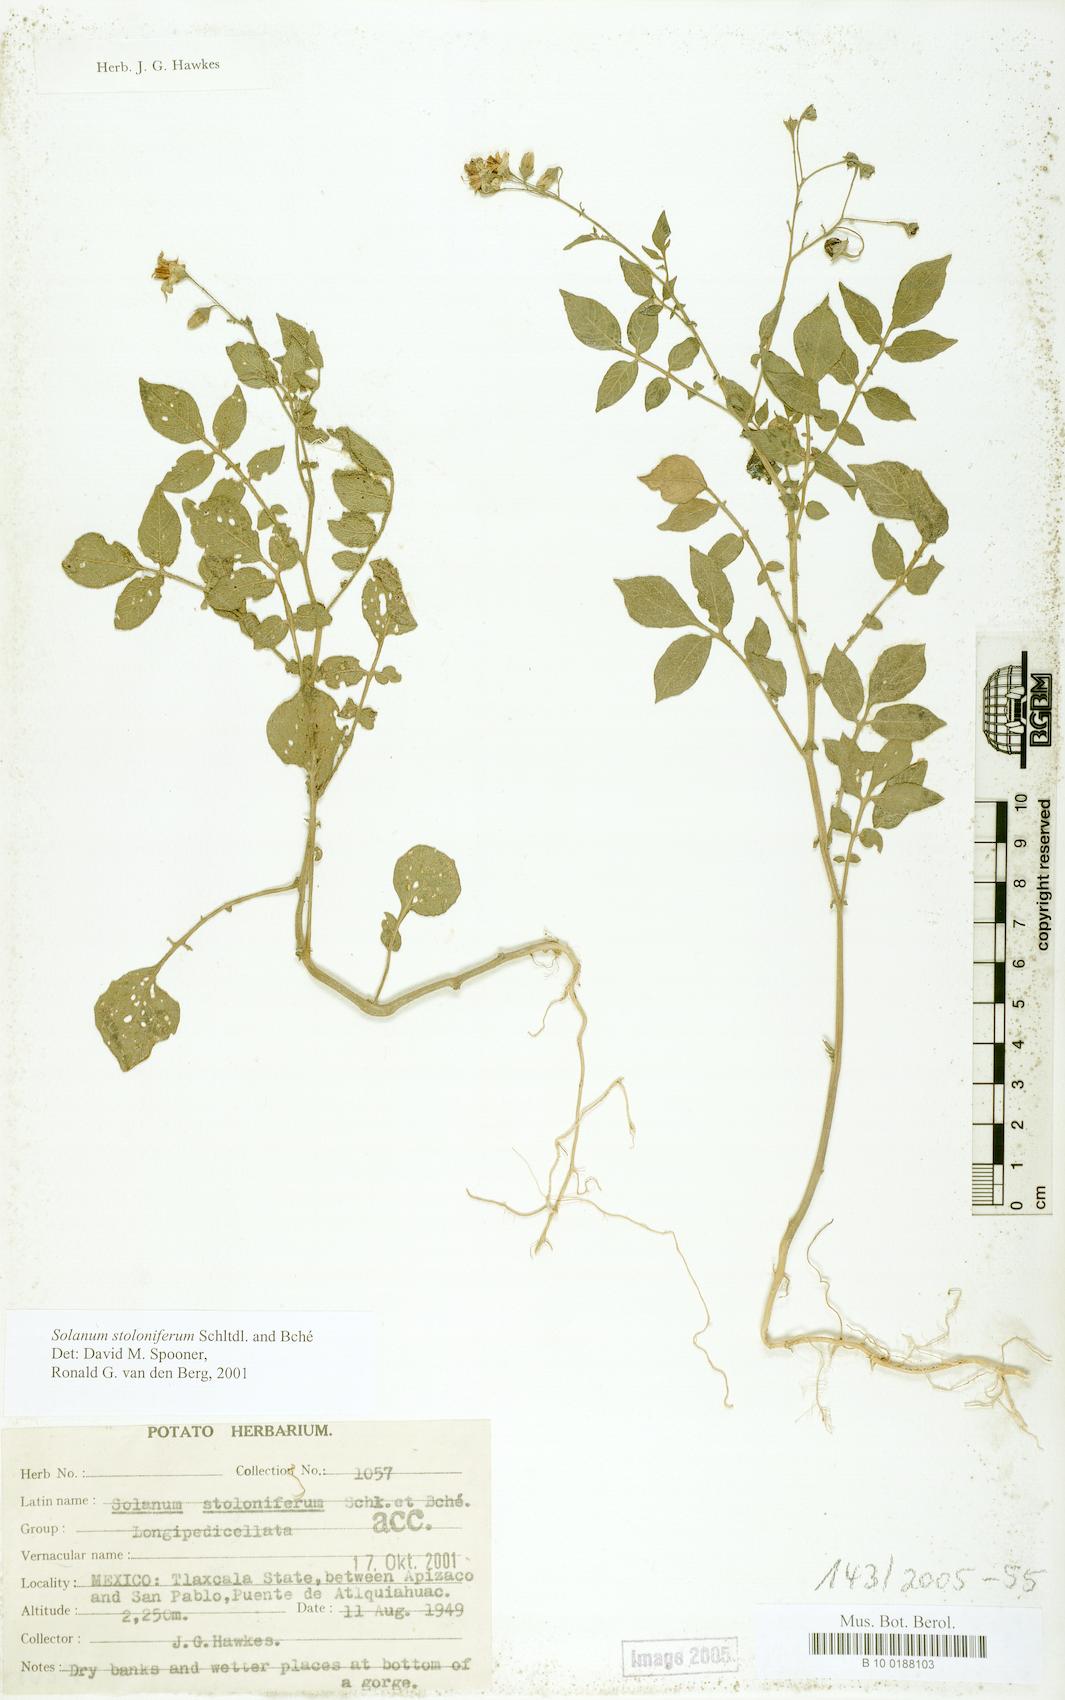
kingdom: Plantae
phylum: Tracheophyta
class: Magnoliopsida
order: Solanales
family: Solanaceae
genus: Solanum
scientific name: Solanum stoloniferum
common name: Fendler's nighshade
